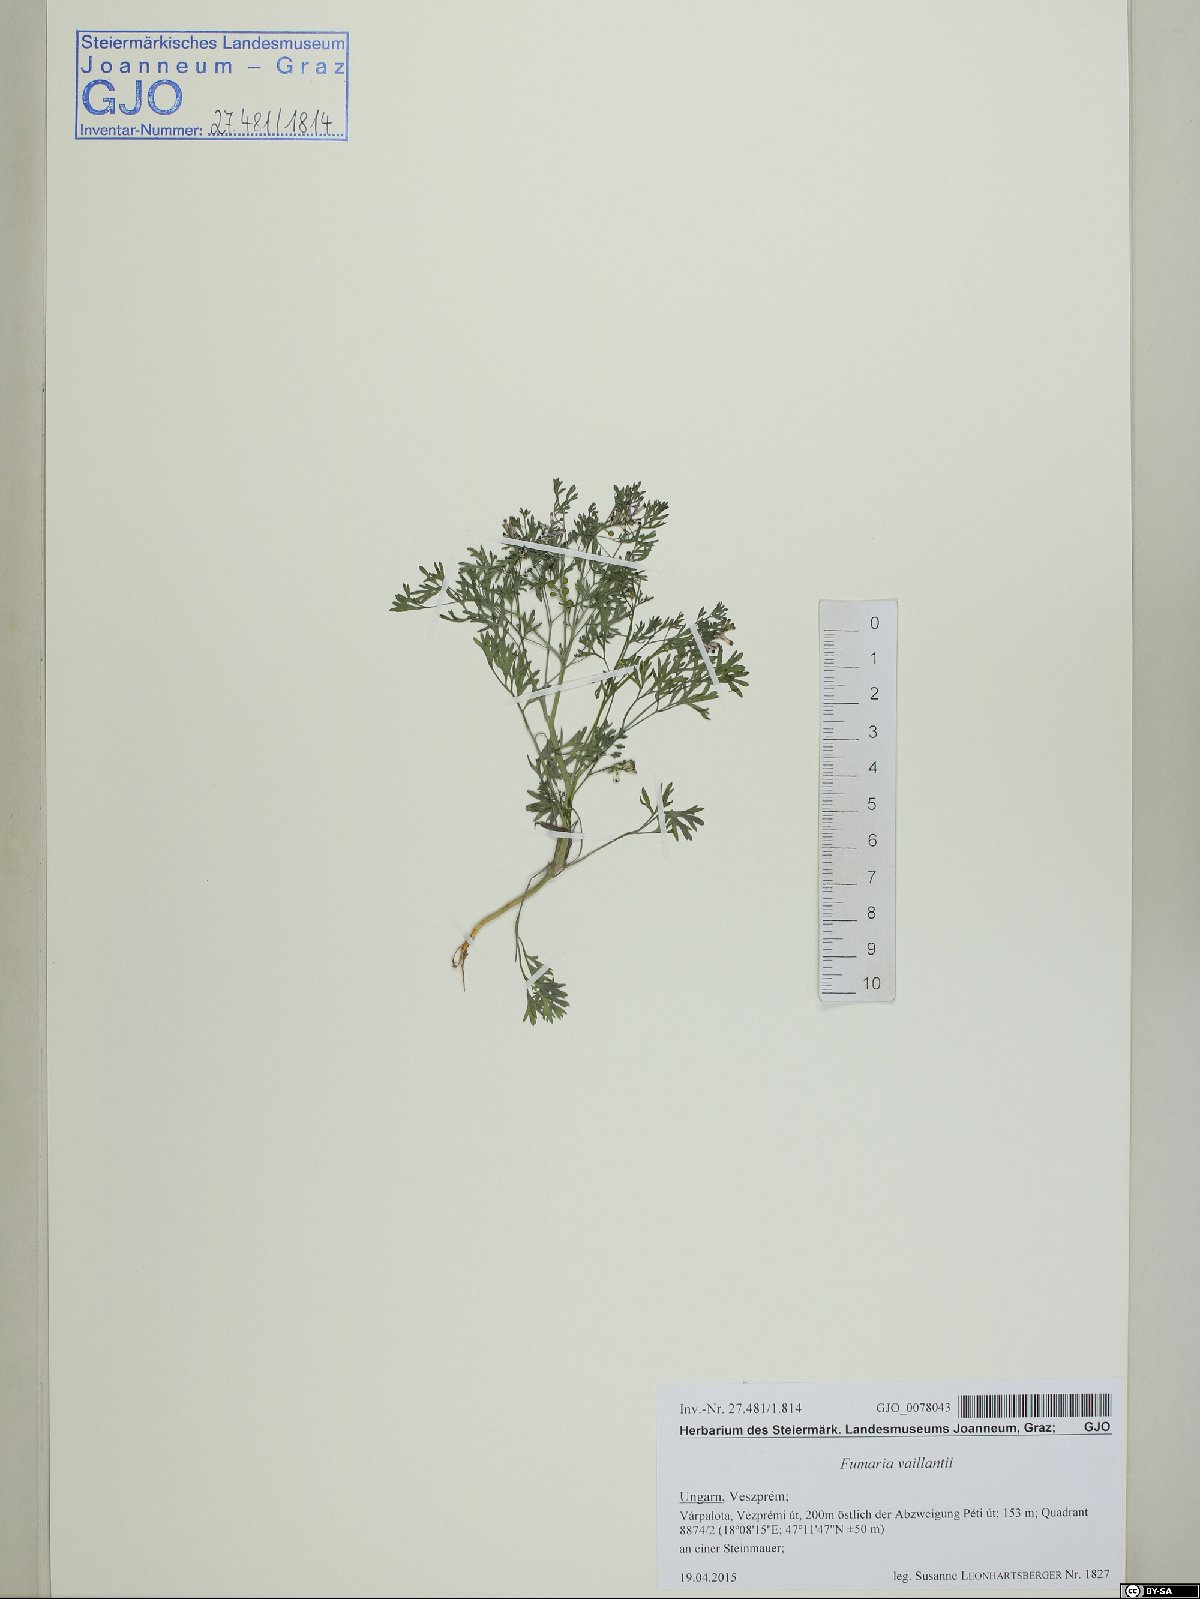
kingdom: Plantae
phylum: Tracheophyta
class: Magnoliopsida
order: Ranunculales
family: Papaveraceae
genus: Fumaria
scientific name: Fumaria vaillantii
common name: Few-flowered fumitory
